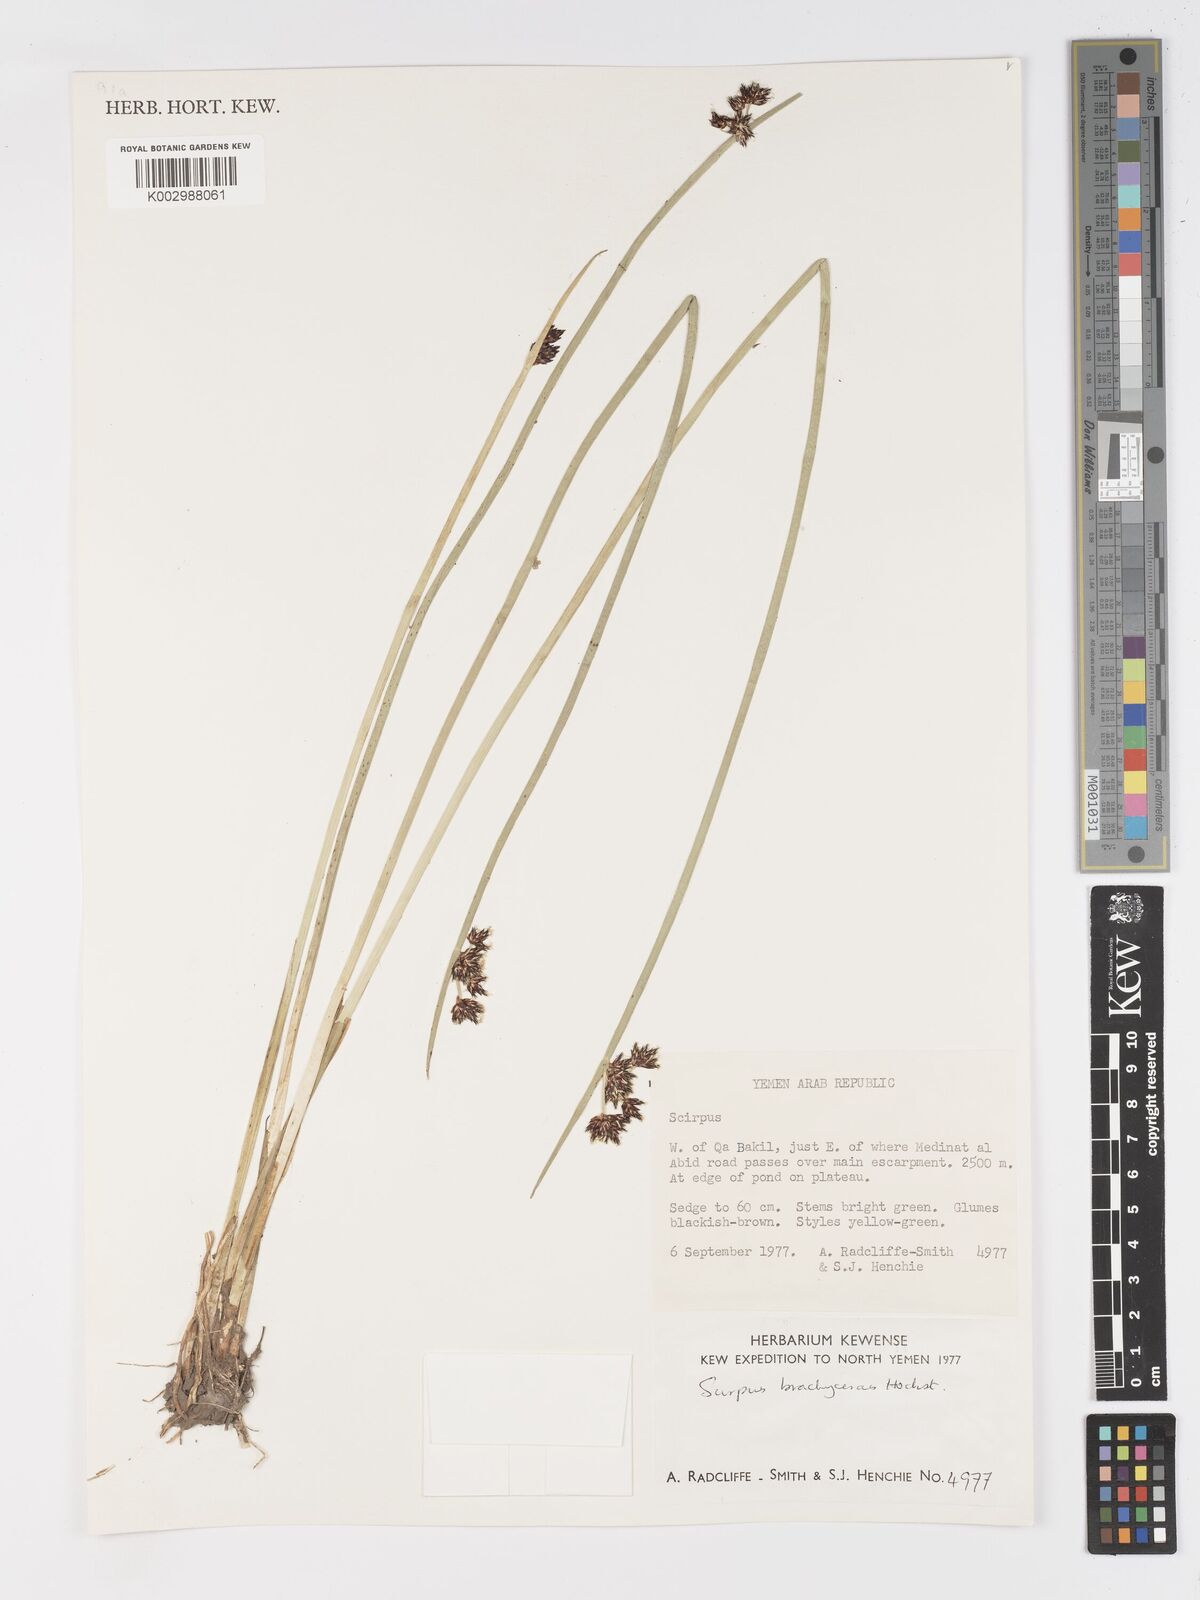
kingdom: Plantae
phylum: Tracheophyta
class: Liliopsida
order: Poales
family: Cyperaceae
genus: Schoenoplectiella
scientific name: Schoenoplectiella brachyceras
